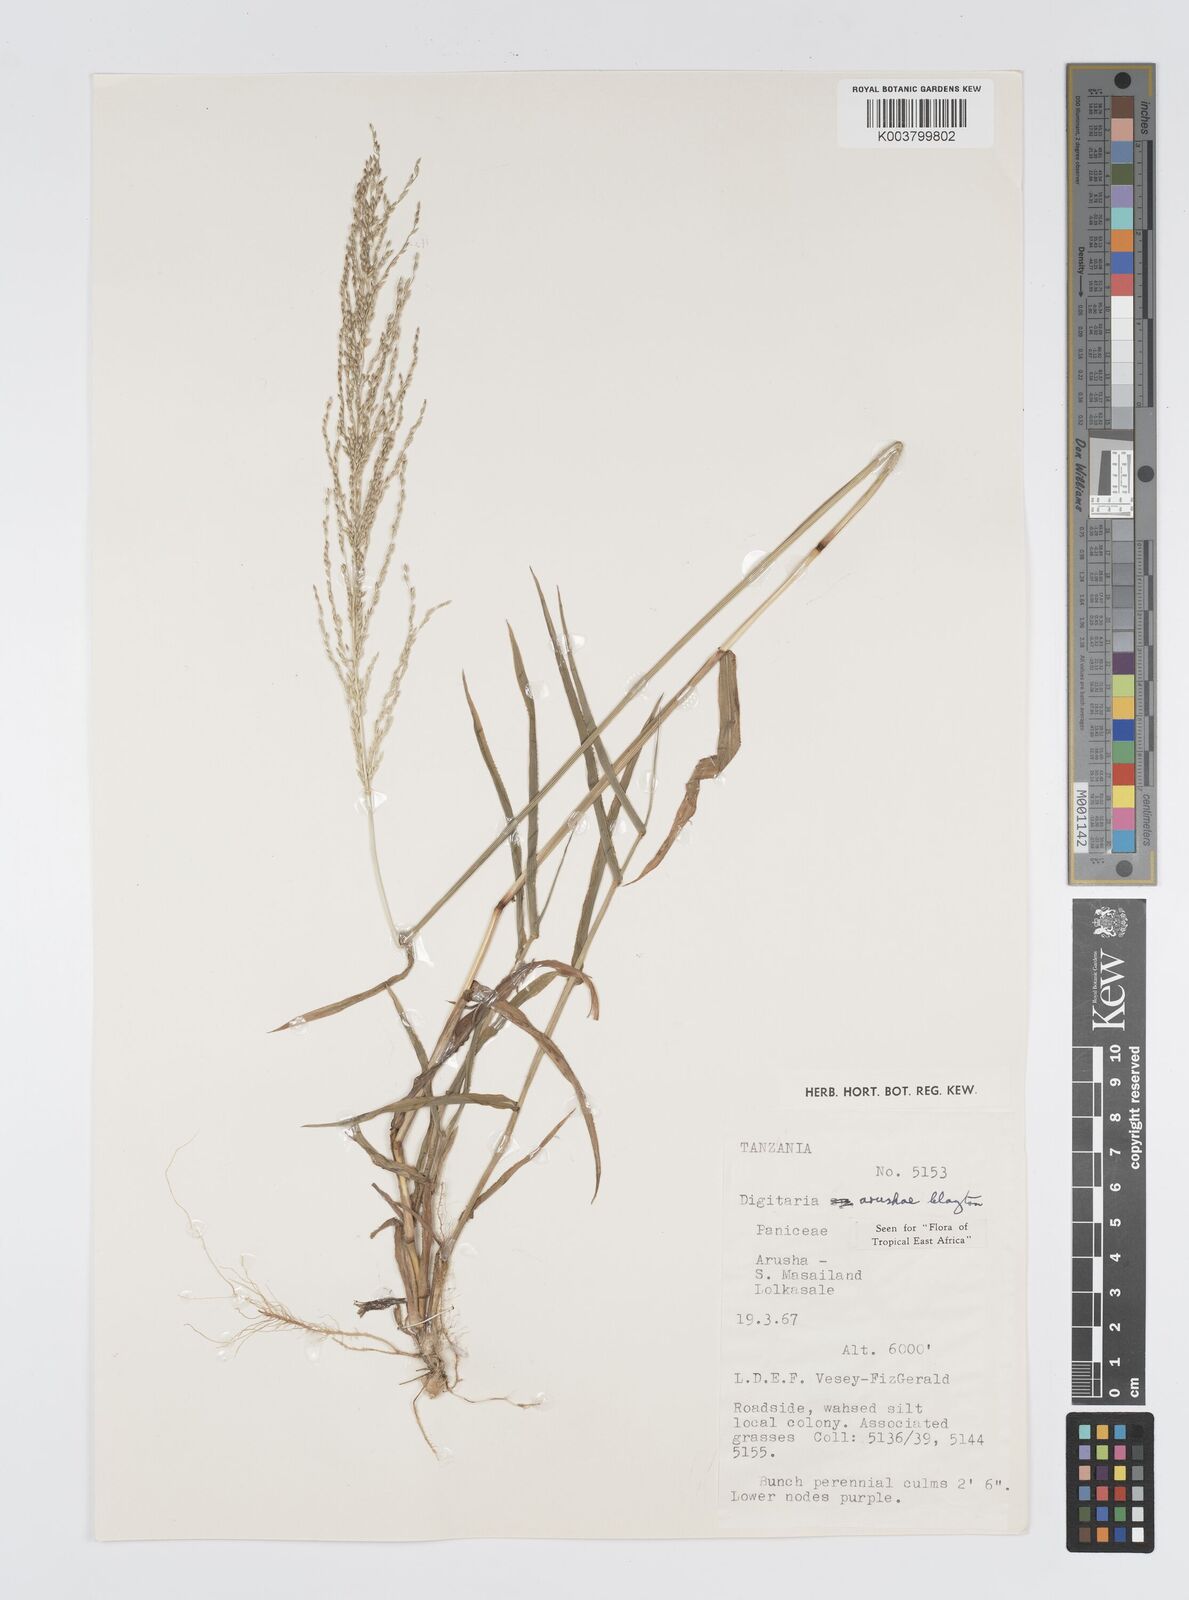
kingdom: Plantae
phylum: Tracheophyta
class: Liliopsida
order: Poales
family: Poaceae
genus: Digitaria
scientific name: Digitaria arushae
